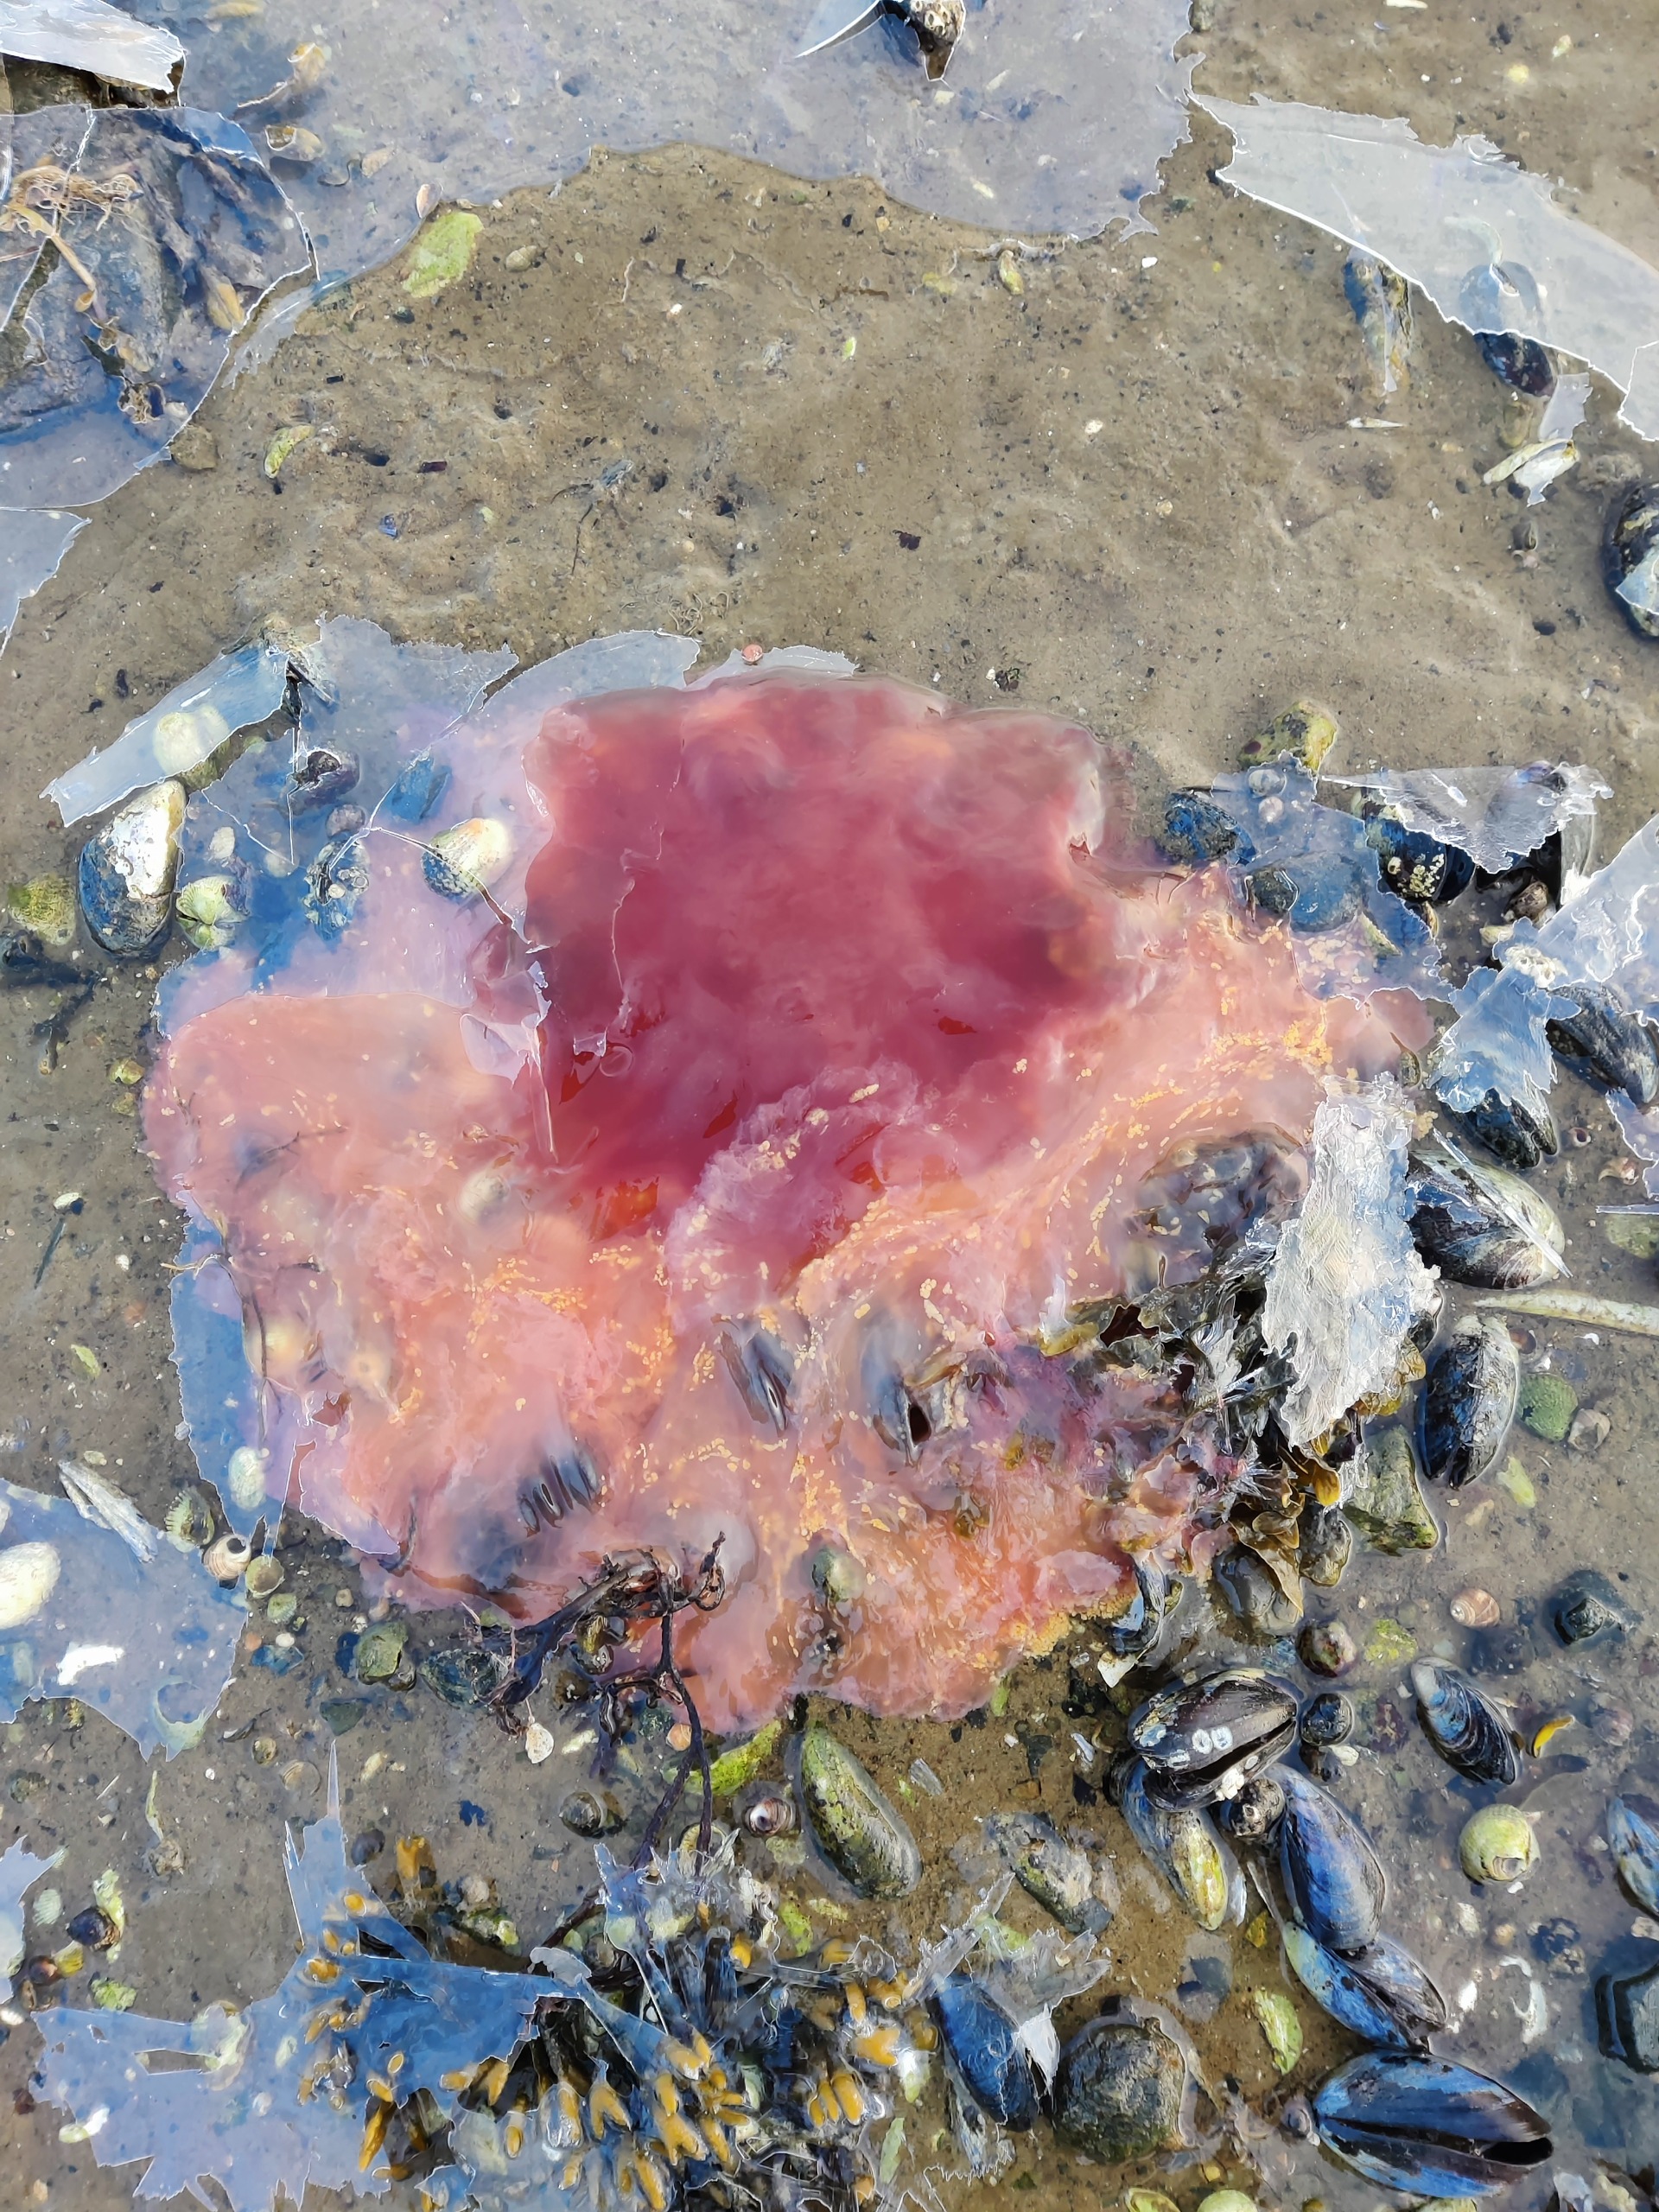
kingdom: Animalia
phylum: Cnidaria
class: Scyphozoa
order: Semaeostomeae
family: Cyaneidae
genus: Cyanea
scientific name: Cyanea capillata
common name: Rød brandmand
